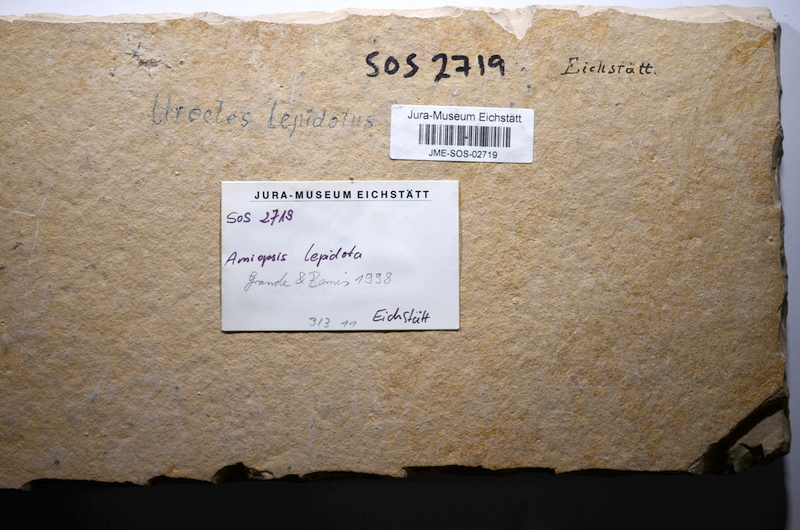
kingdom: Animalia
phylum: Chordata
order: Amiiformes
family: Amiidae
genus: Amiopsis
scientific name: Amiopsis lepidota
